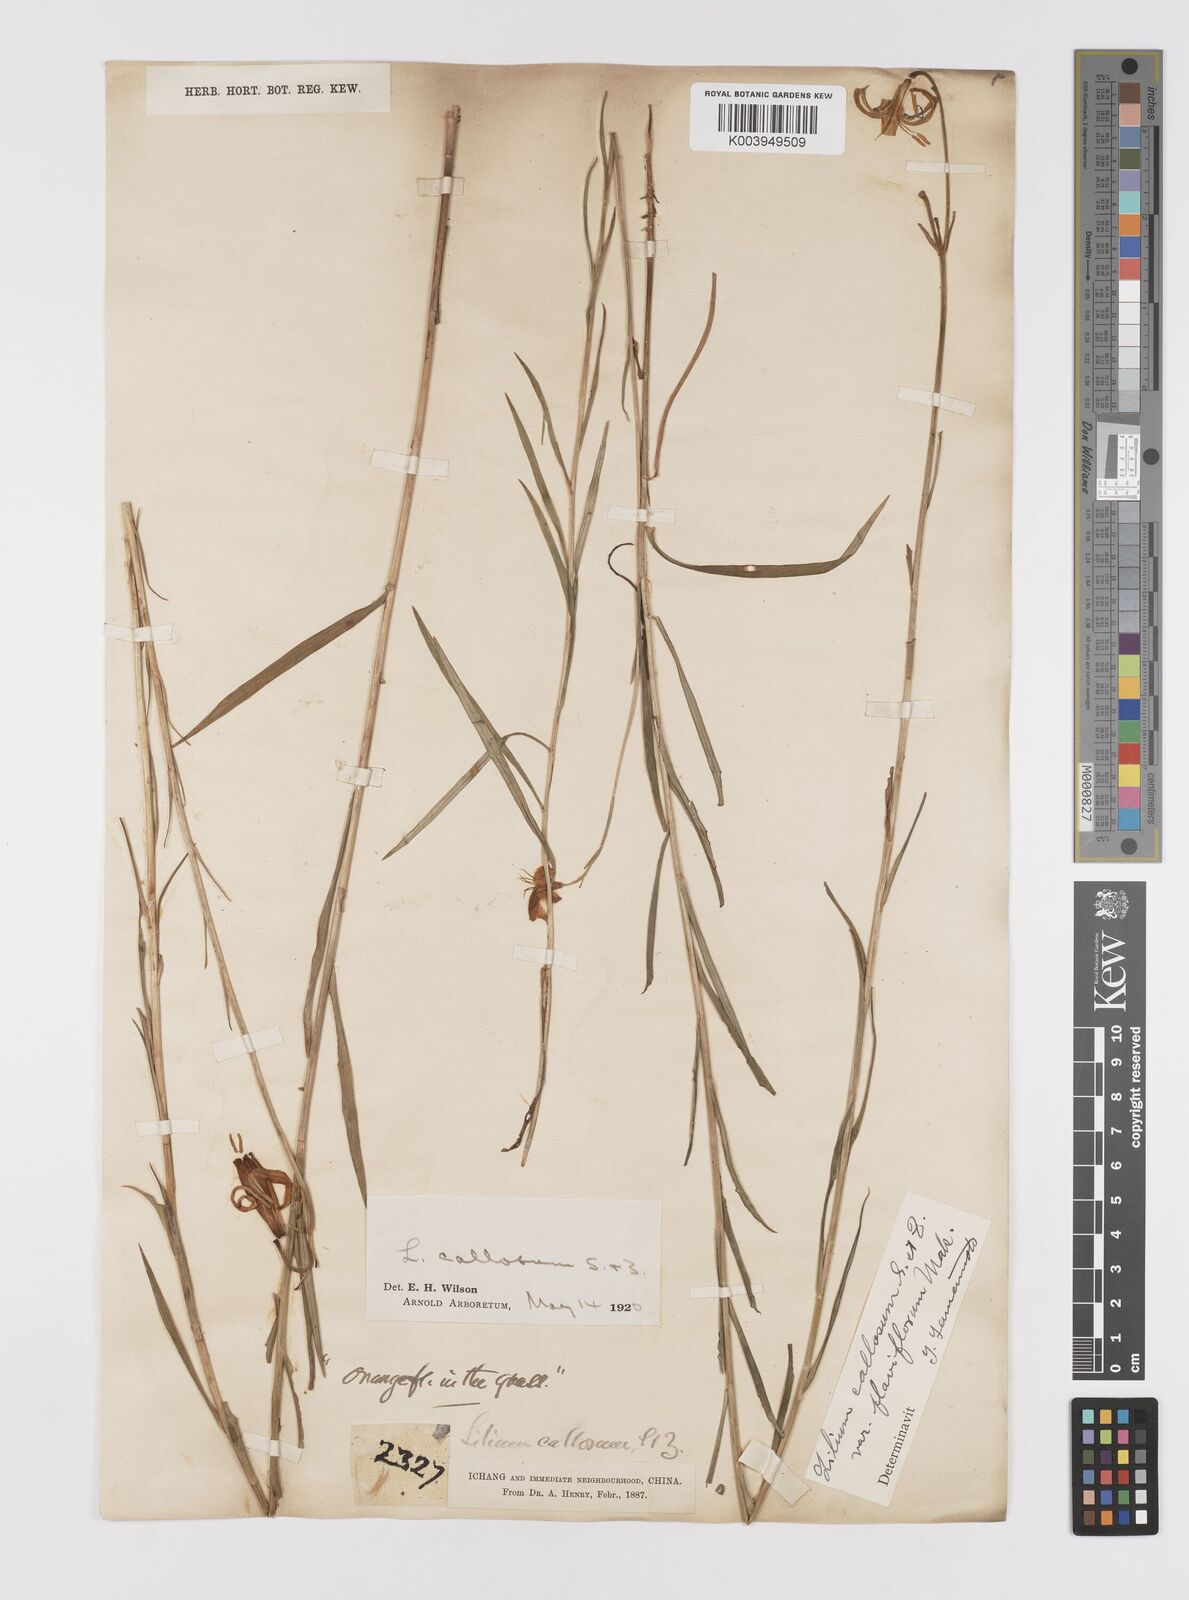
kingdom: Plantae
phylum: Tracheophyta
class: Liliopsida
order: Liliales
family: Liliaceae
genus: Lilium
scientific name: Lilium callosum
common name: Slim-stem lily
